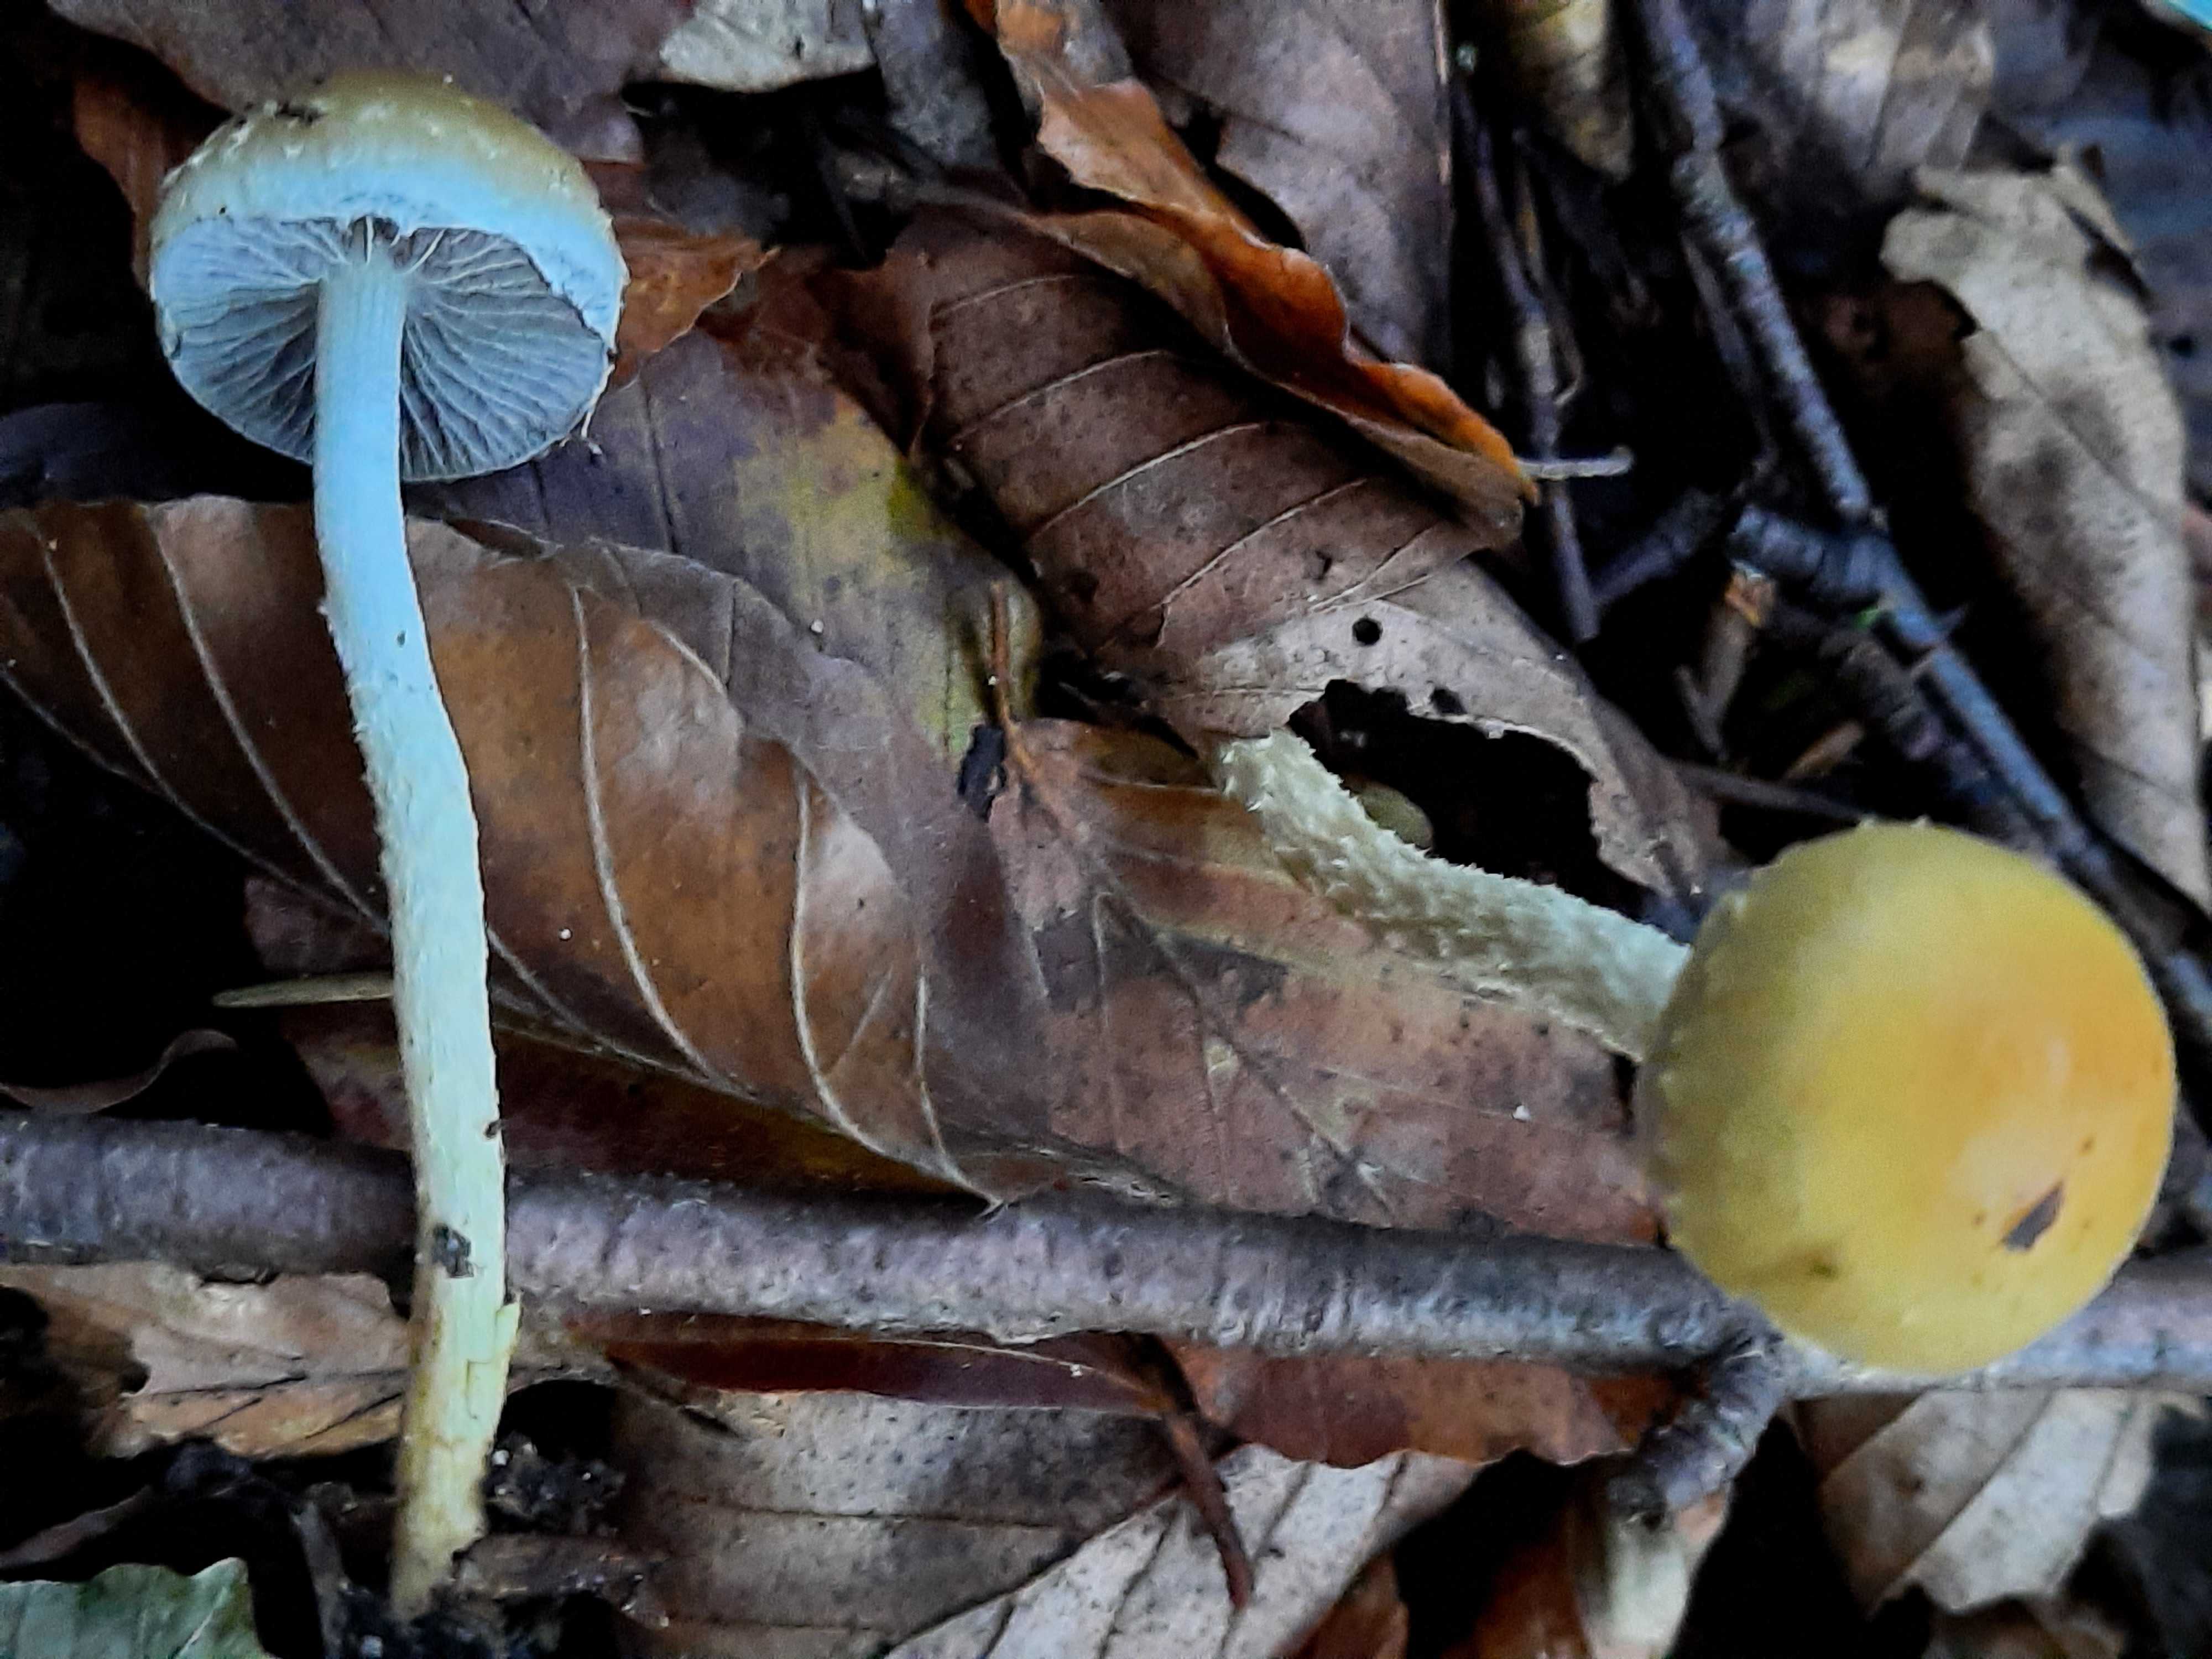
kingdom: Fungi
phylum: Basidiomycota
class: Agaricomycetes
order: Agaricales
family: Strophariaceae
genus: Leratiomyces
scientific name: Leratiomyces squamosus
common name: skællet bredblad
